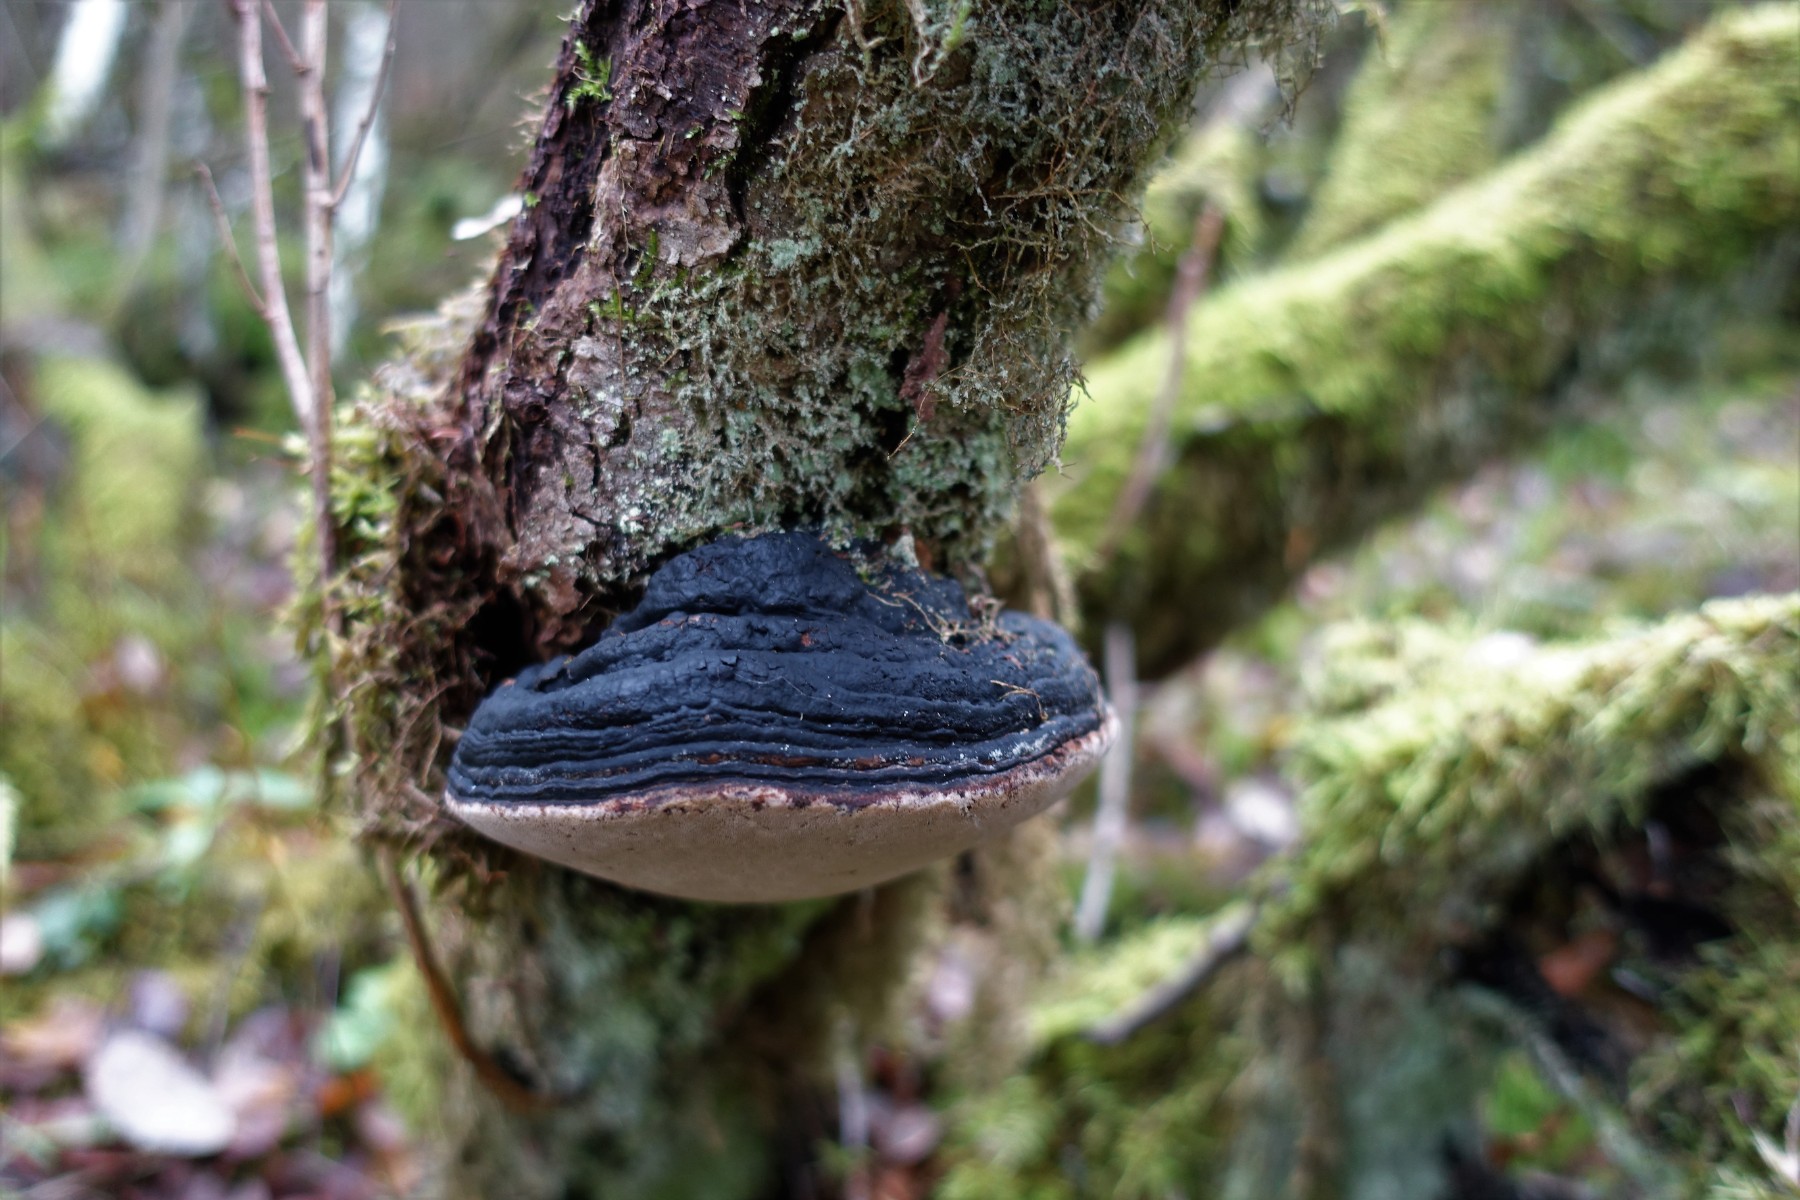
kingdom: Fungi
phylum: Basidiomycota
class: Agaricomycetes
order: Hymenochaetales
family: Hymenochaetaceae
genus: Phellinus
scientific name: Phellinus igniarius
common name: almindelig ildporesvamp
